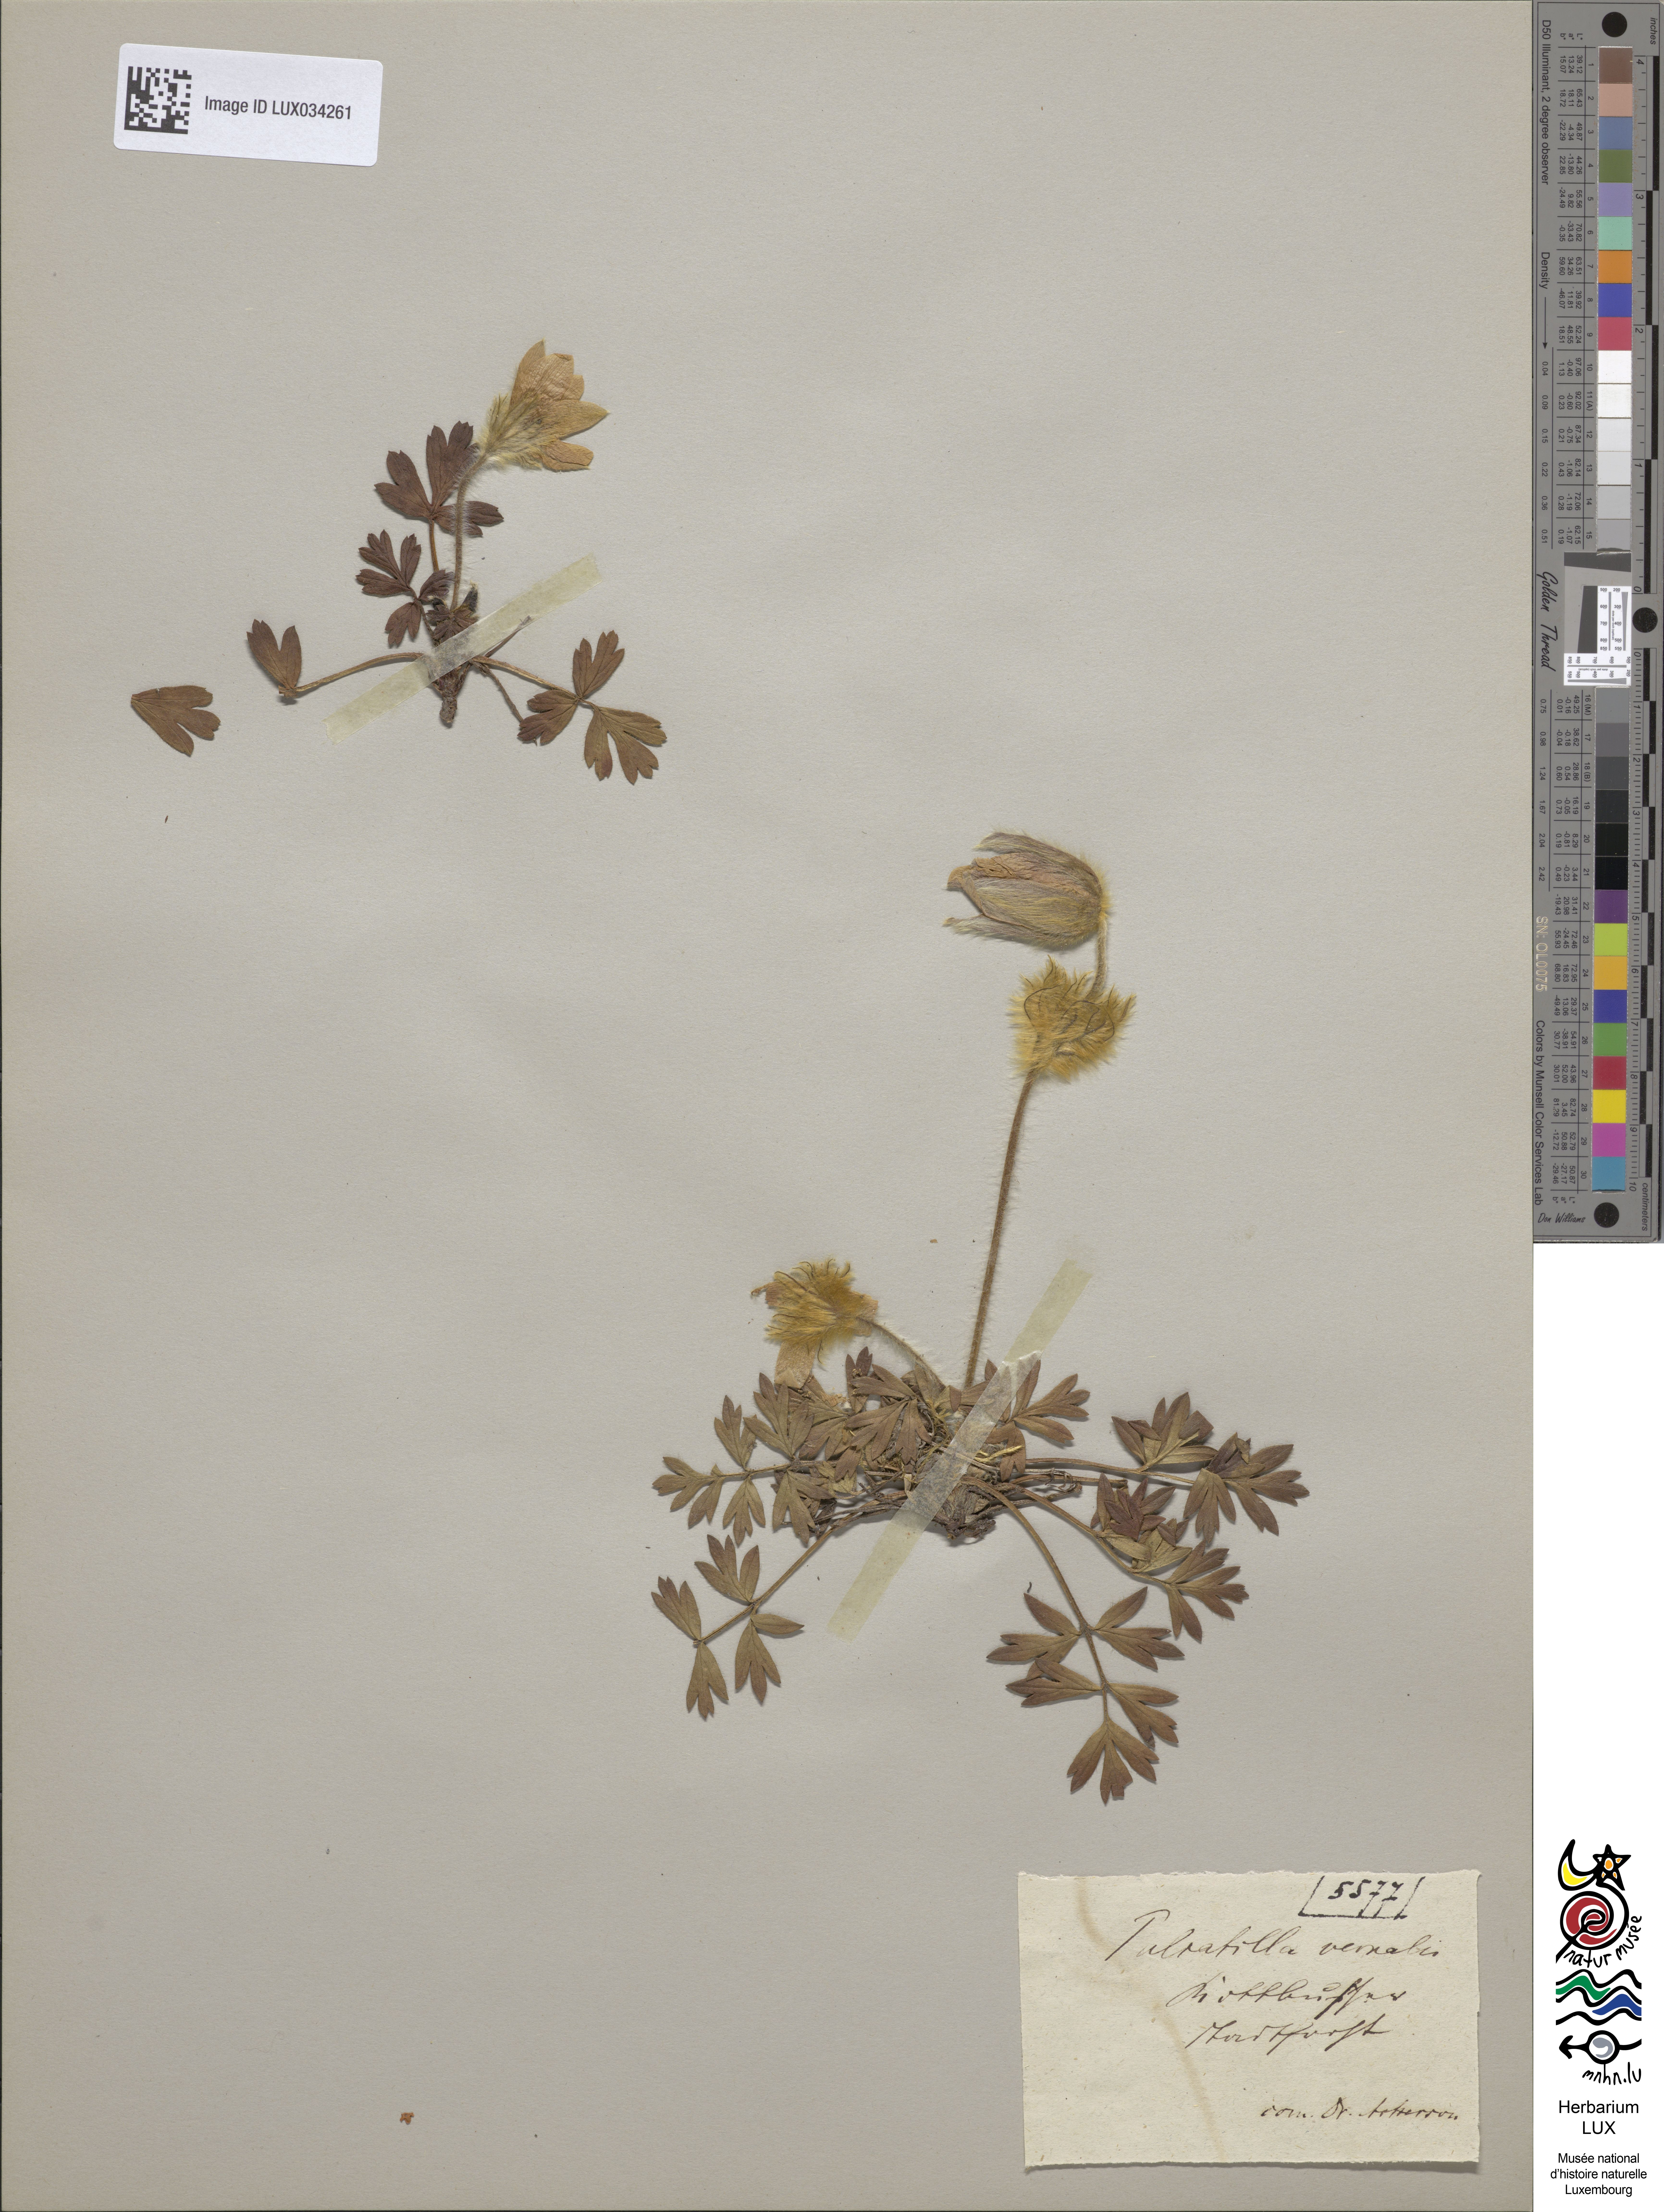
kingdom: Plantae
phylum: Tracheophyta
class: Magnoliopsida
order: Ranunculales
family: Ranunculaceae
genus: Pulsatilla
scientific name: Pulsatilla vernalis
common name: Spring pasque flower
